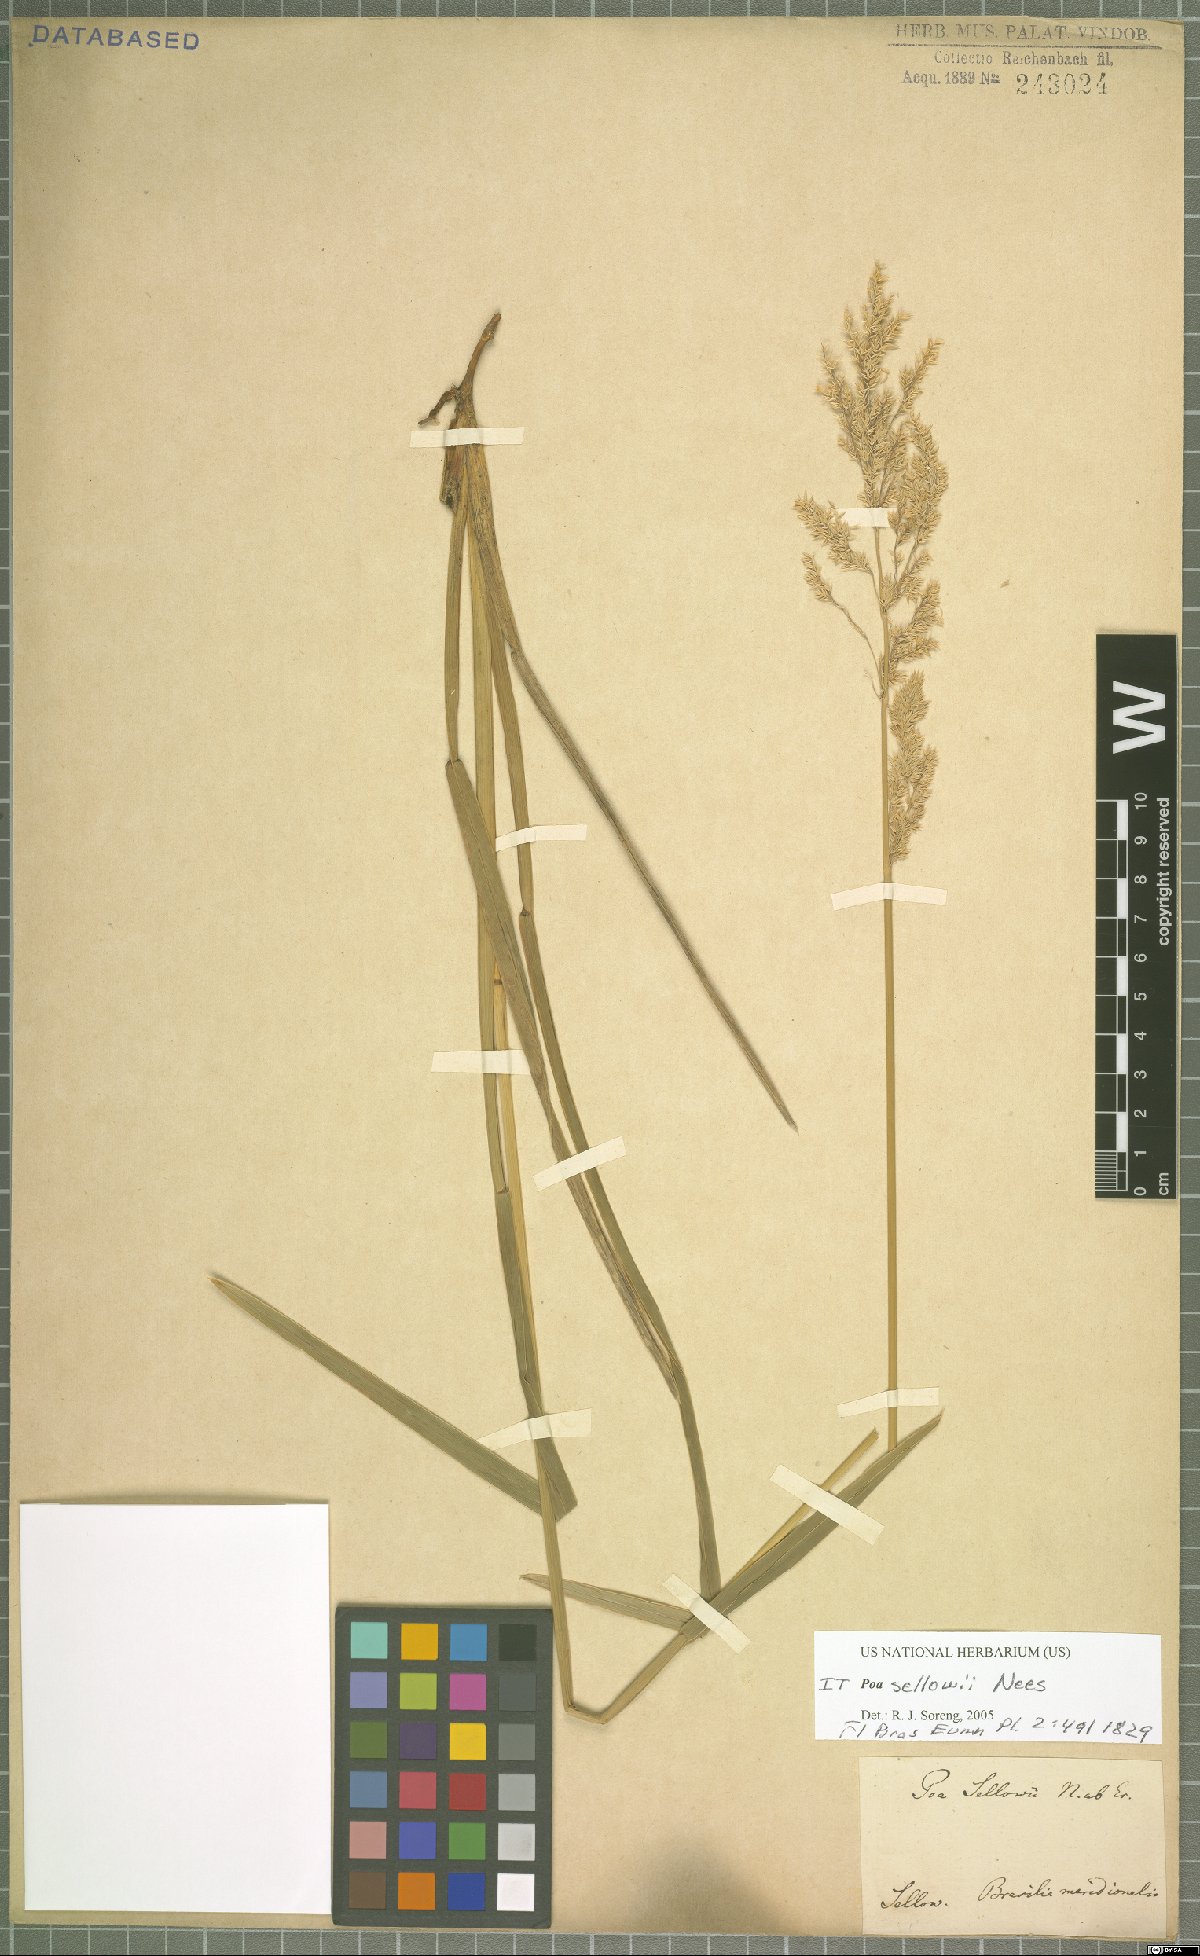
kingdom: Plantae
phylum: Tracheophyta
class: Liliopsida
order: Poales
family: Poaceae
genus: Poa
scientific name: Poa sellovii
